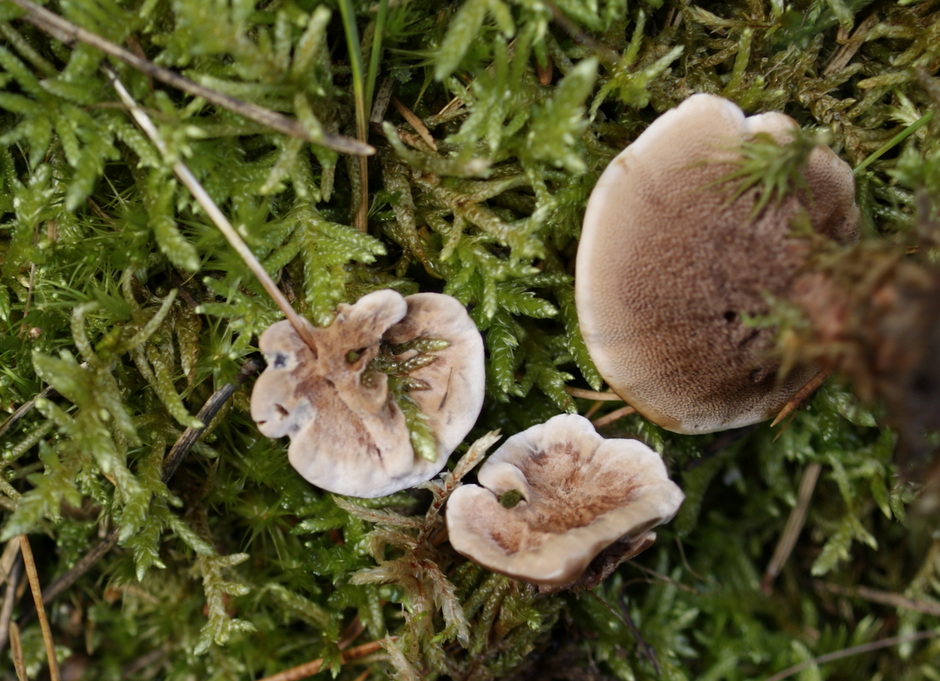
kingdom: Fungi
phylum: Basidiomycota
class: Agaricomycetes
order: Thelephorales
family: Bankeraceae
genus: Hydnellum
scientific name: Hydnellum concrescens
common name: bæltet korkpigsvamp
